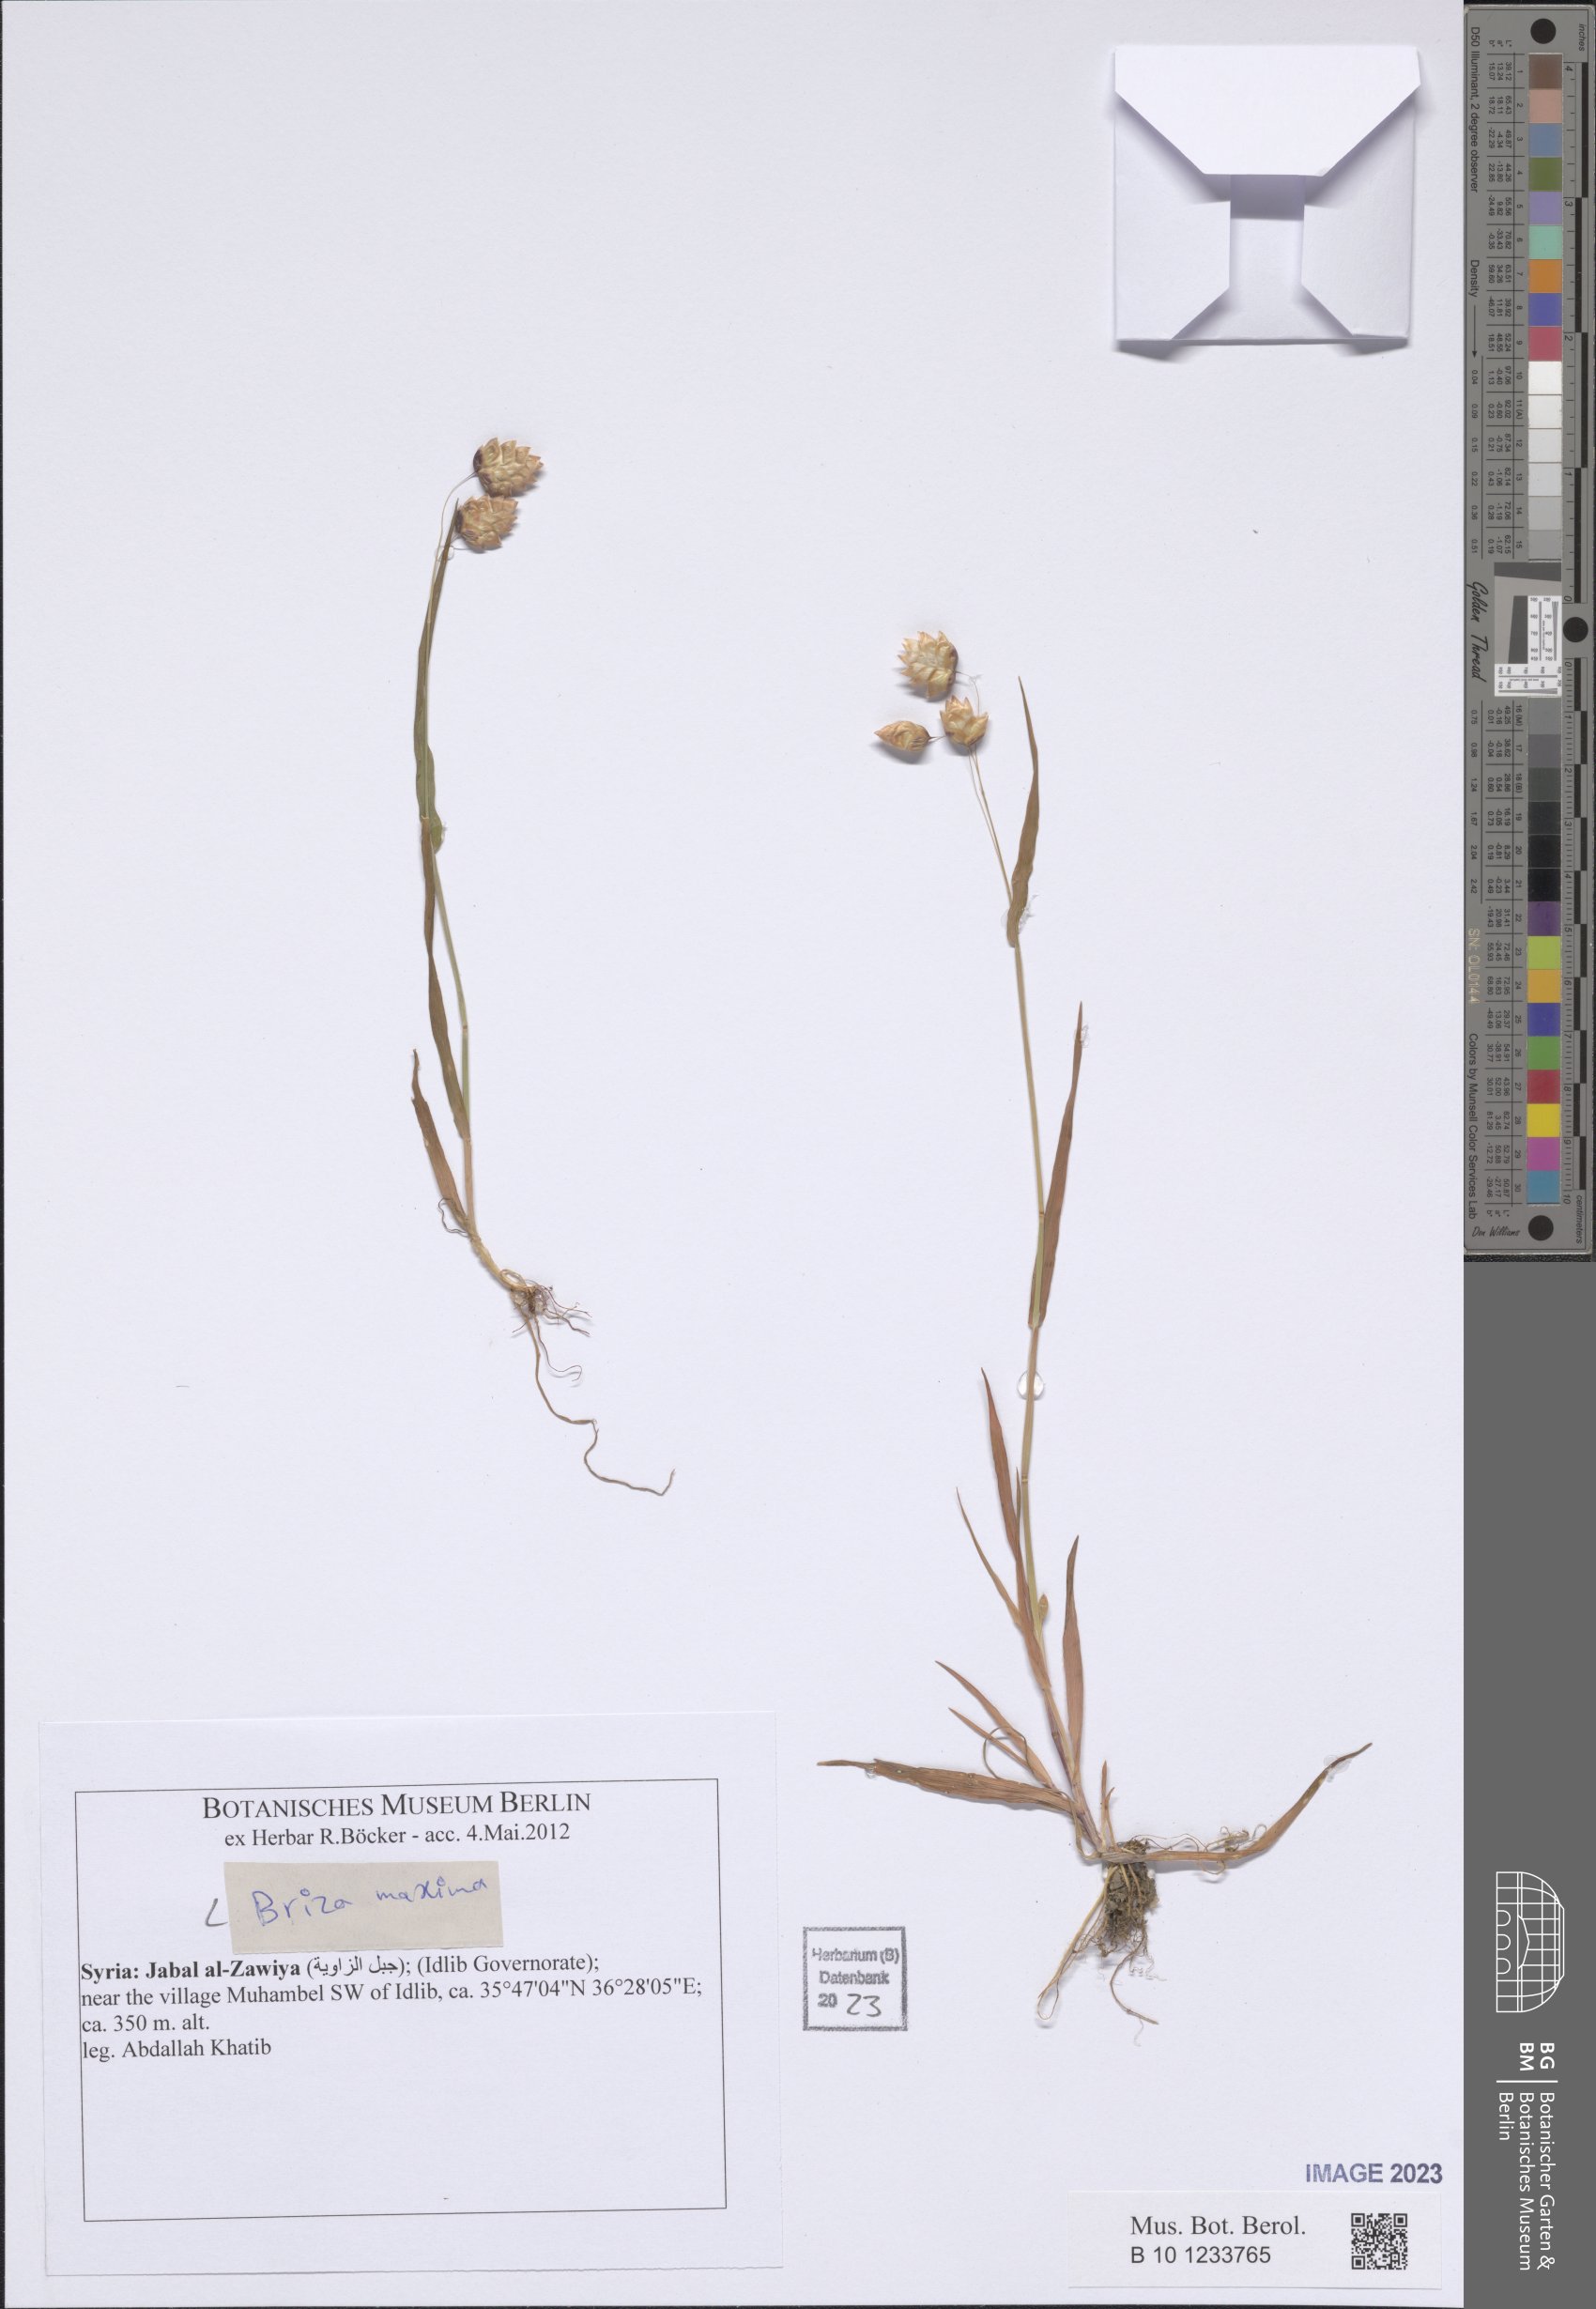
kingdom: Plantae
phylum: Tracheophyta
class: Liliopsida
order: Poales
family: Poaceae
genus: Briza
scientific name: Briza maxima
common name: Big quakinggrass
